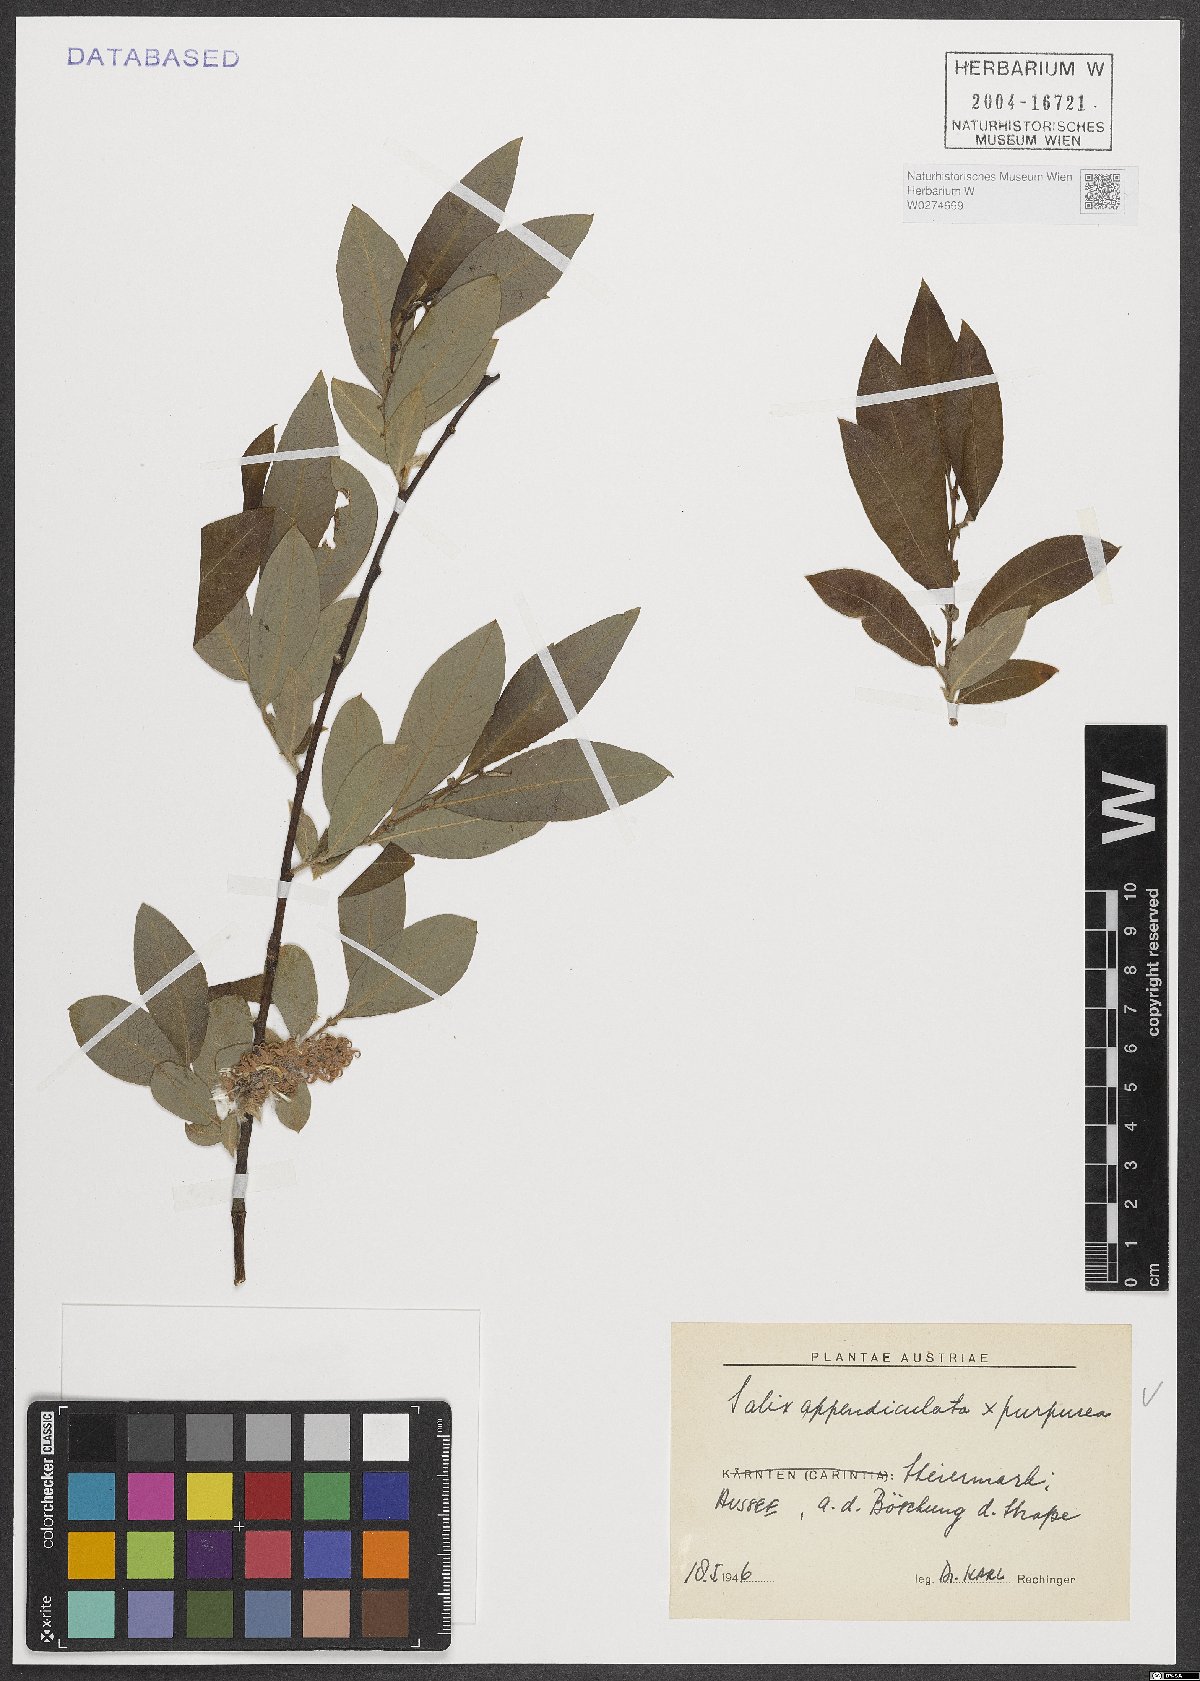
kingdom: Plantae
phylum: Tracheophyta
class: Magnoliopsida
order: Malpighiales
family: Salicaceae
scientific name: Salicaceae
